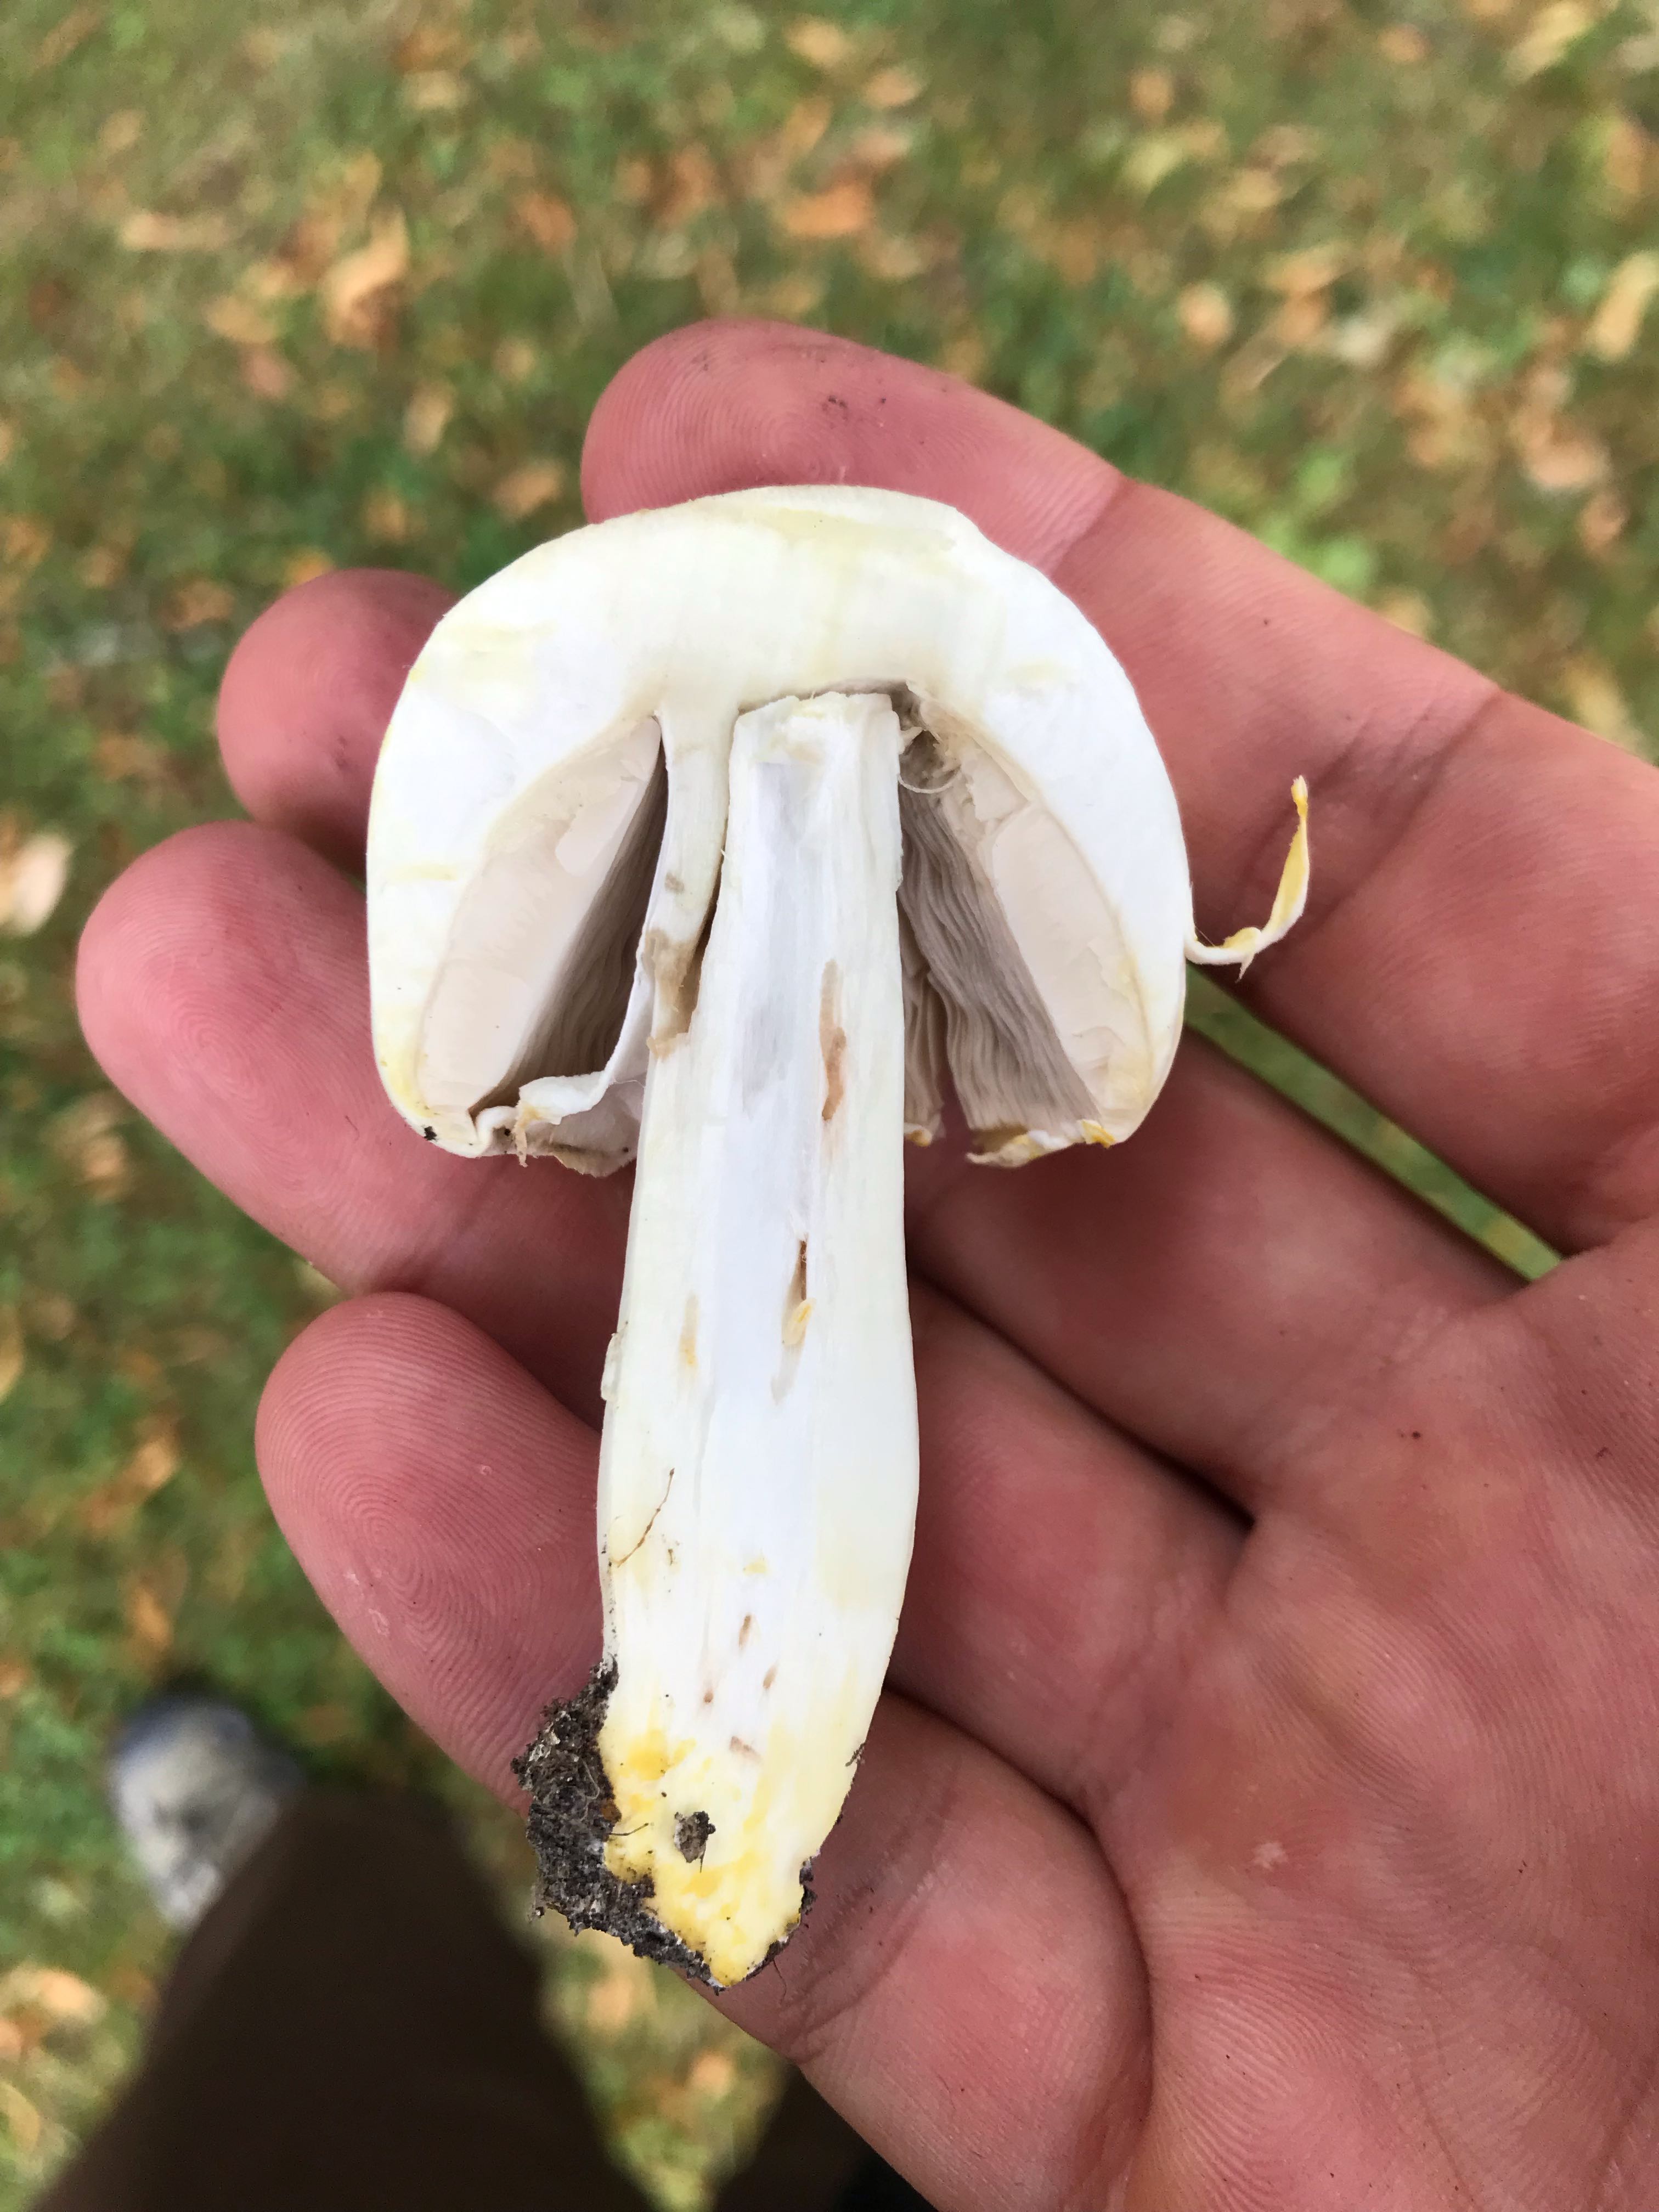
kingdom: Fungi
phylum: Basidiomycota
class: Agaricomycetes
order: Agaricales
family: Agaricaceae
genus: Agaricus
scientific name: Agaricus xanthodermus
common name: karbol-champignon
